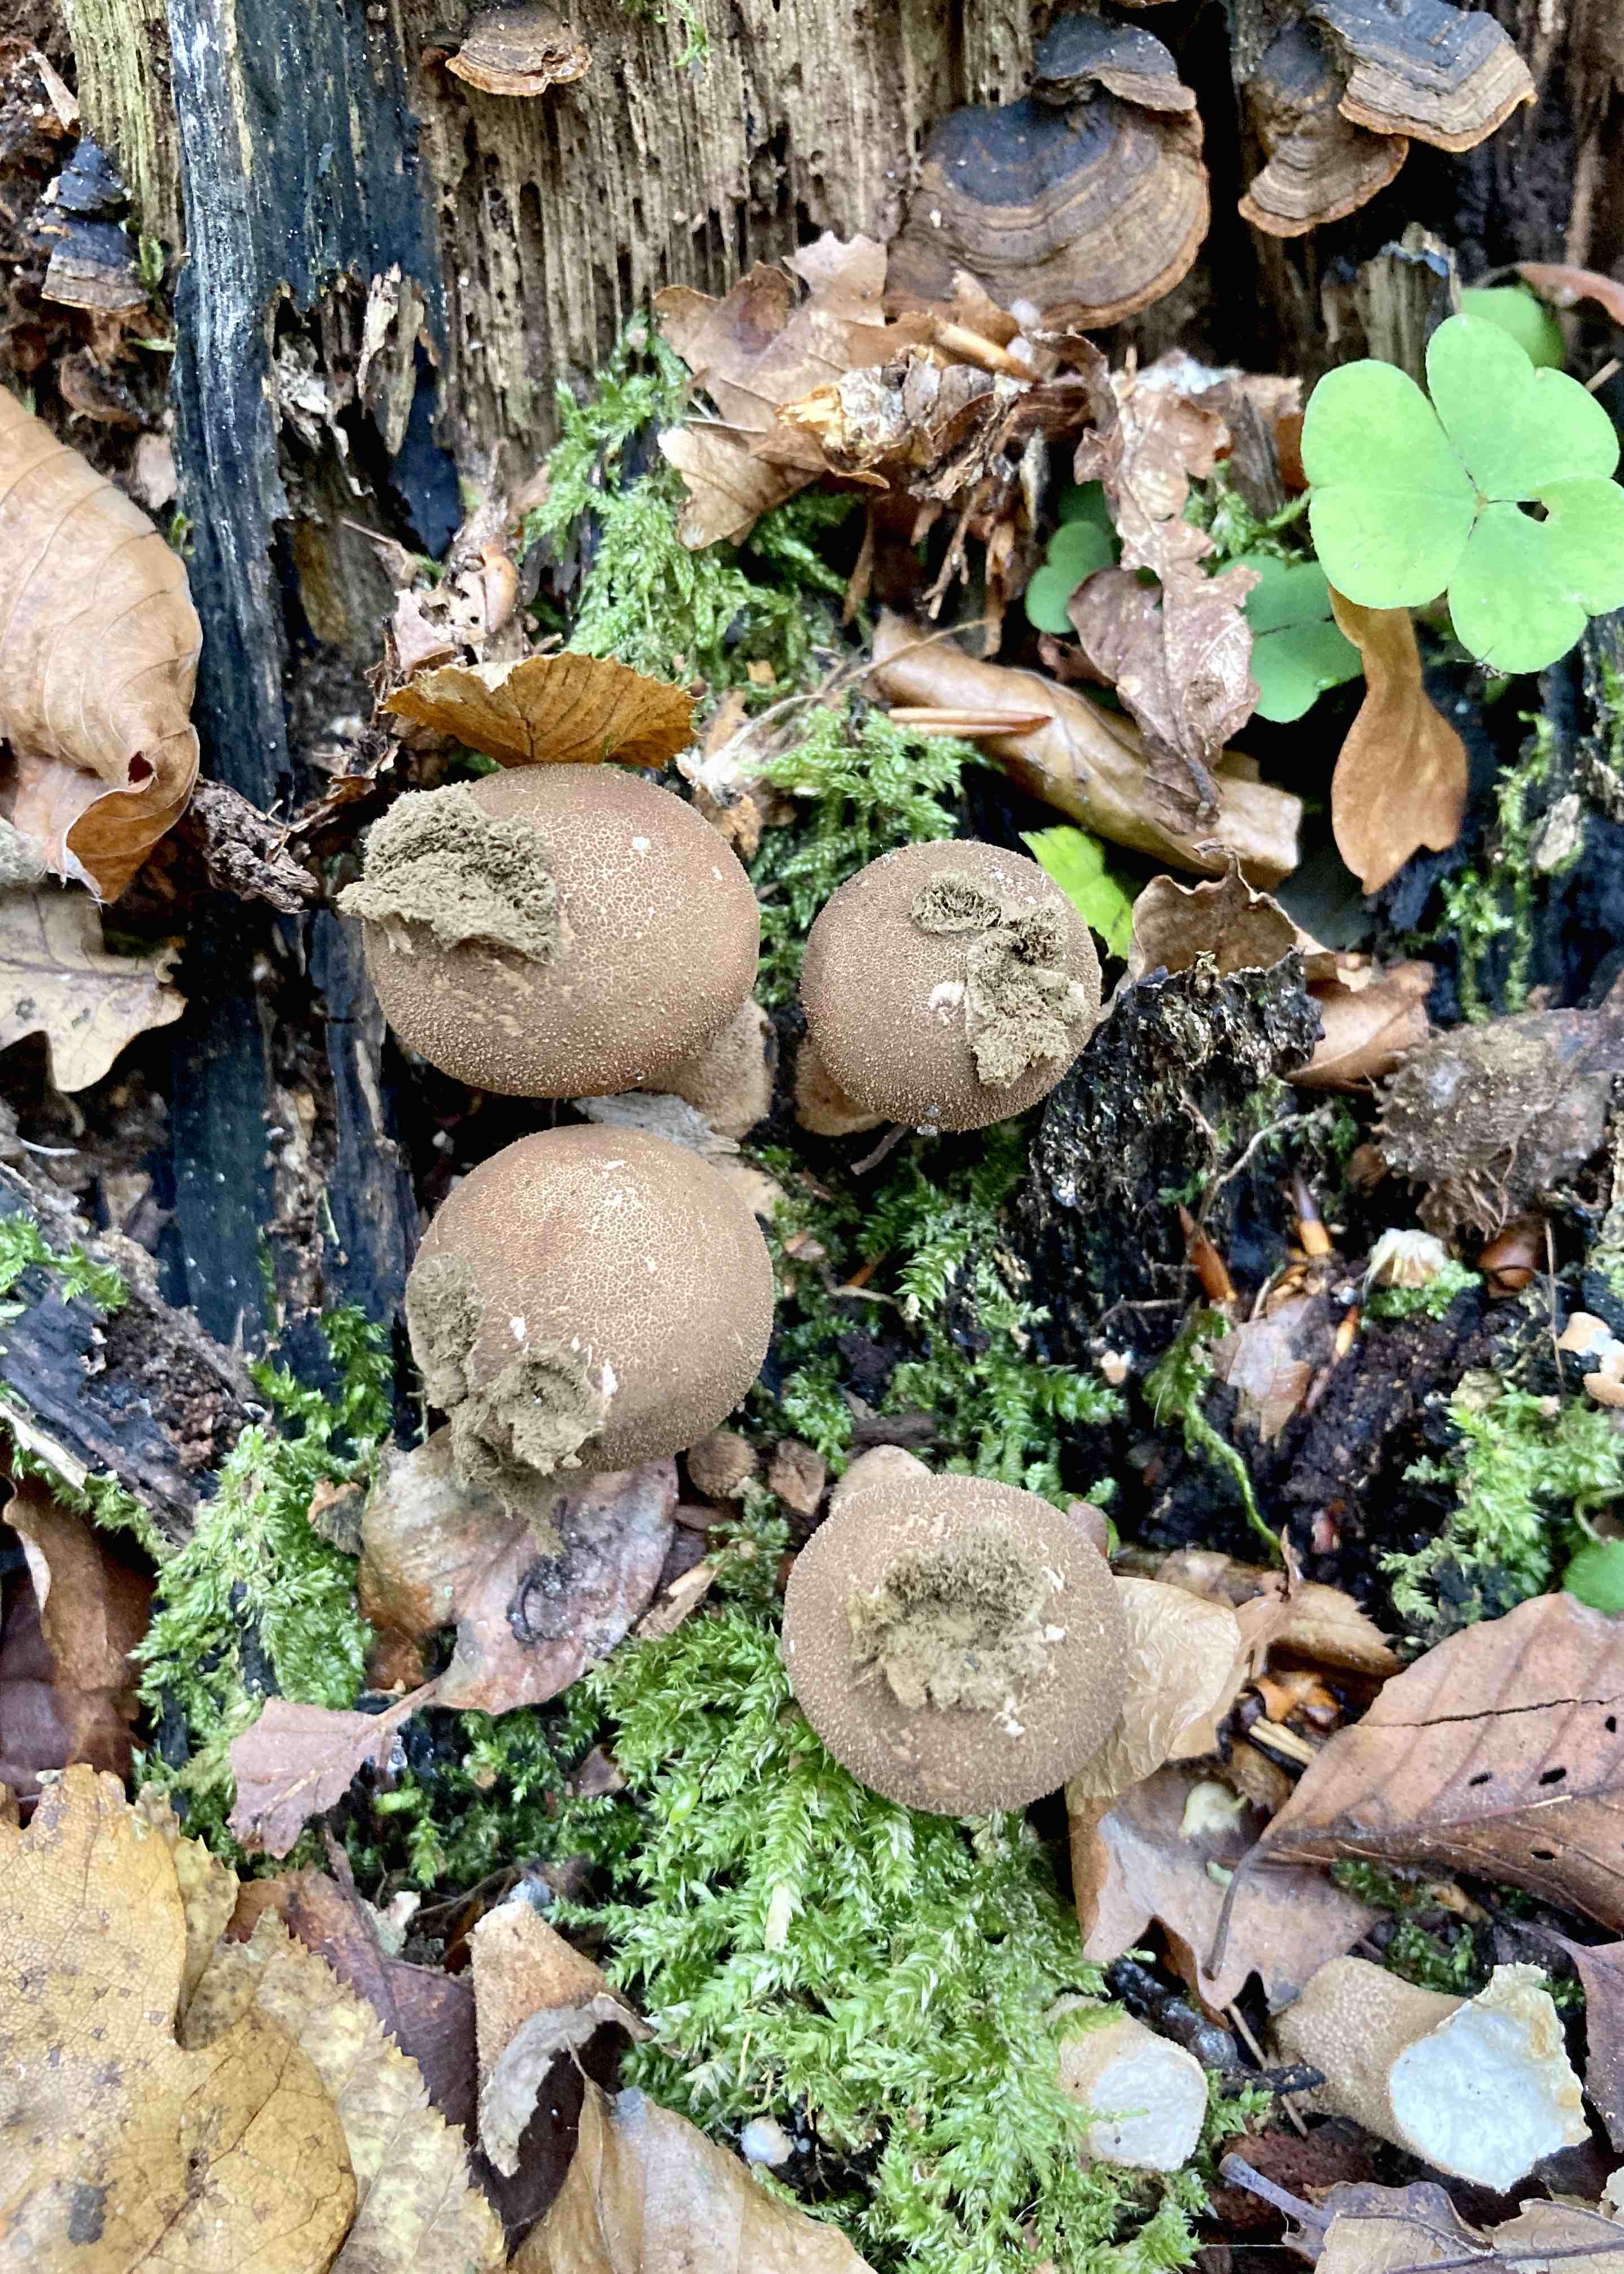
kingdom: Fungi
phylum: Basidiomycota
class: Agaricomycetes
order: Agaricales
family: Lycoperdaceae
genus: Apioperdon
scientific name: Apioperdon pyriforme
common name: pære-støvbold
